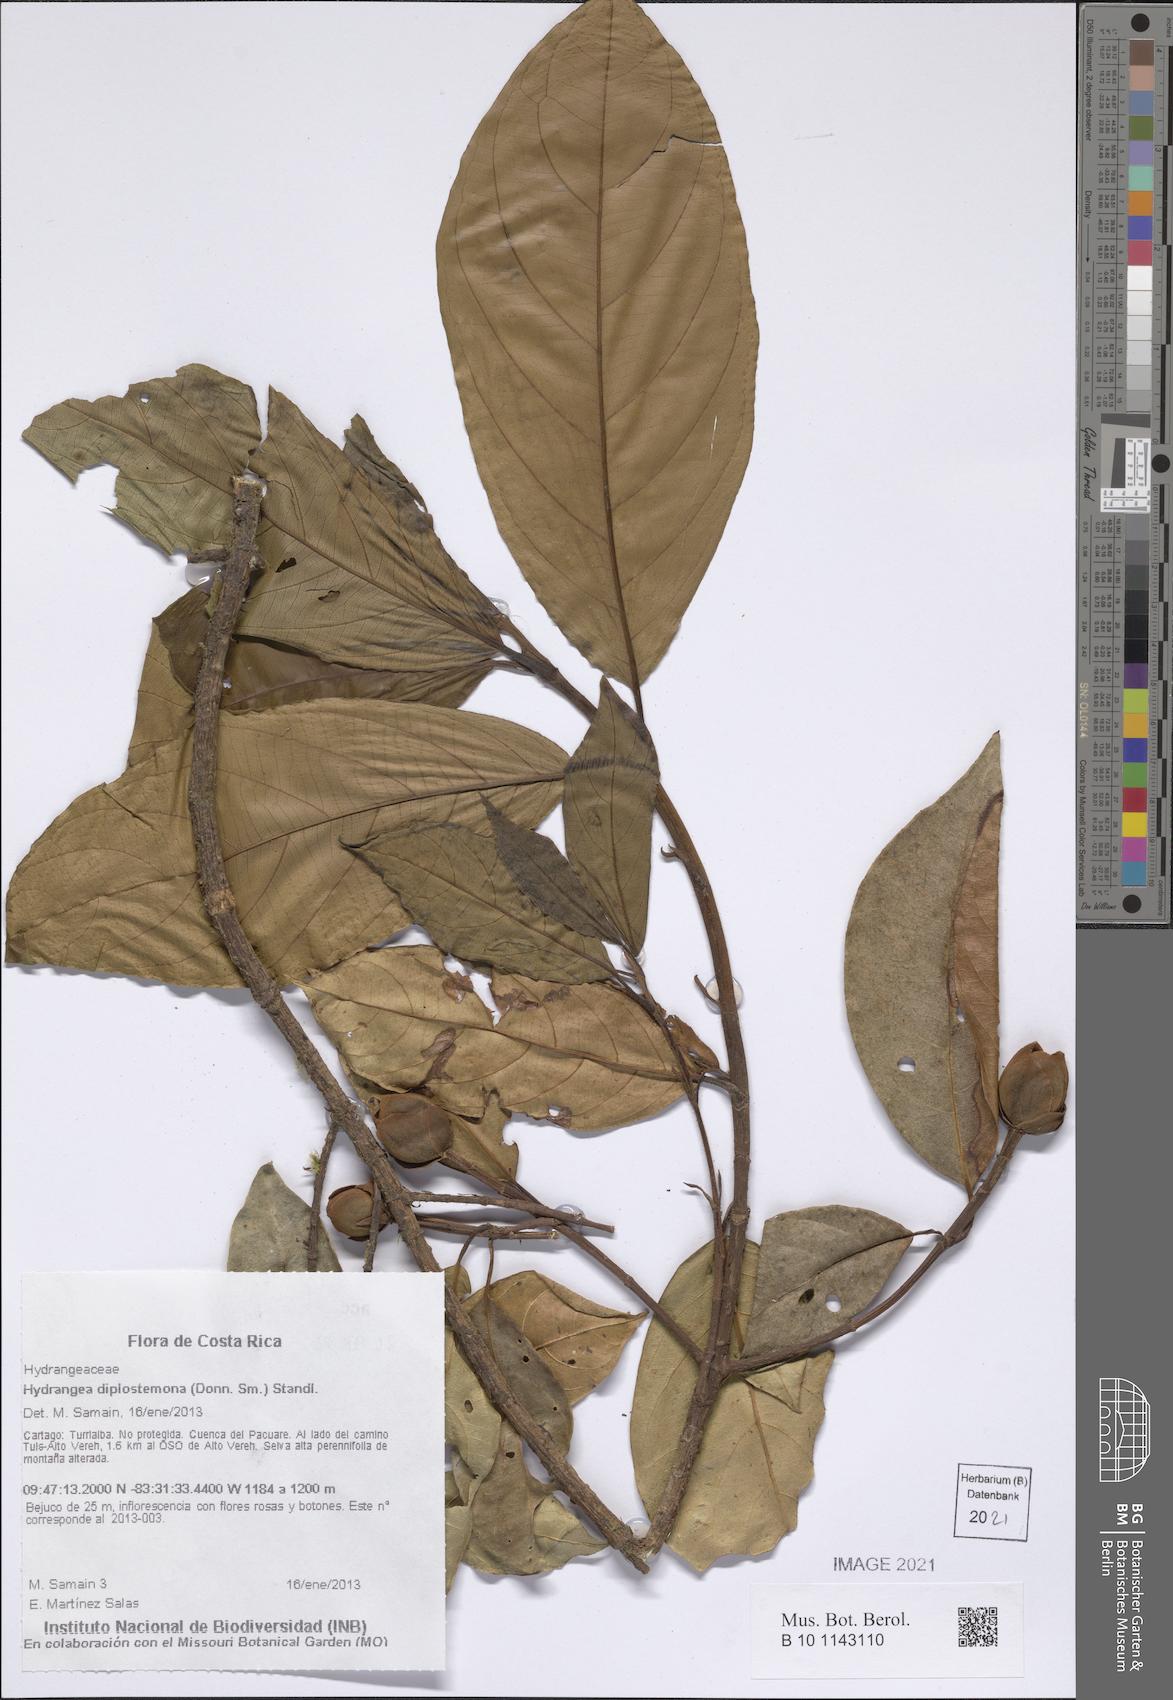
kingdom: Plantae
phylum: Tracheophyta
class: Magnoliopsida
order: Cornales
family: Hydrangeaceae
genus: Hydrangea
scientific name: Hydrangea diplostemona
